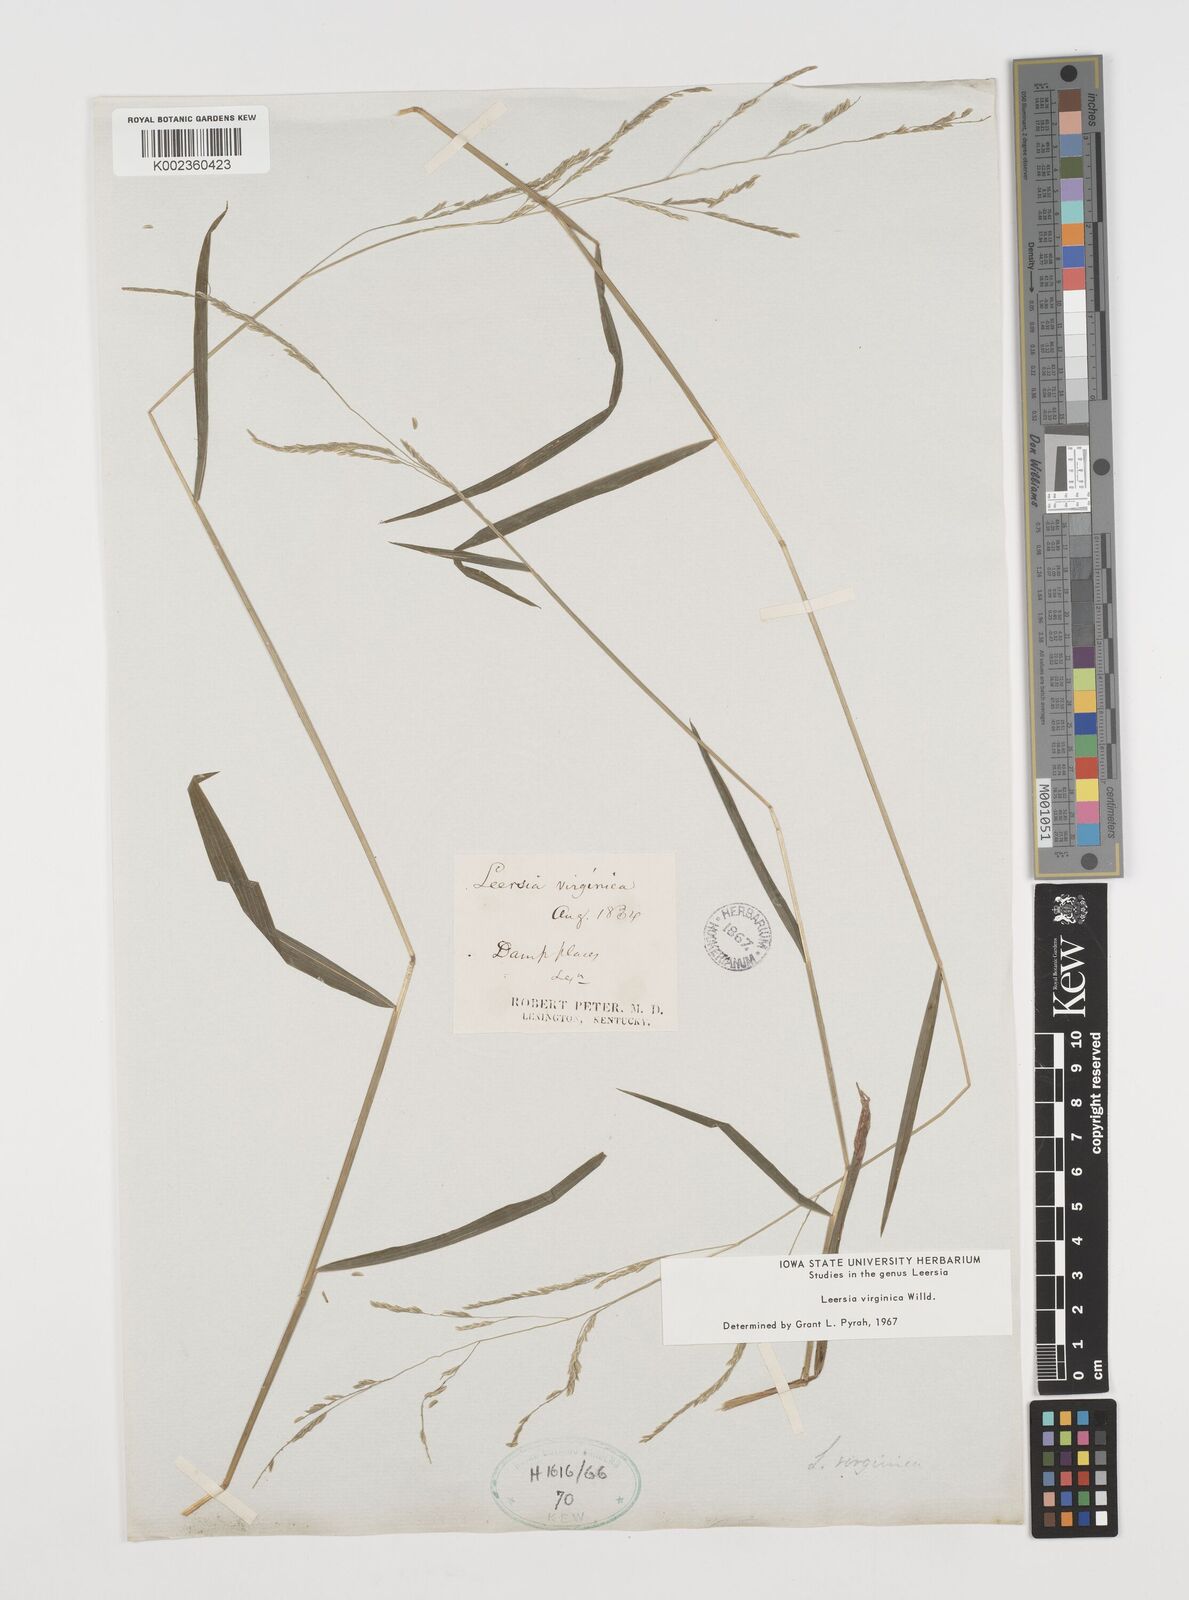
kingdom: Plantae
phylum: Tracheophyta
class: Liliopsida
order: Poales
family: Poaceae
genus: Leersia
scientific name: Leersia virginica
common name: White cutgrass
